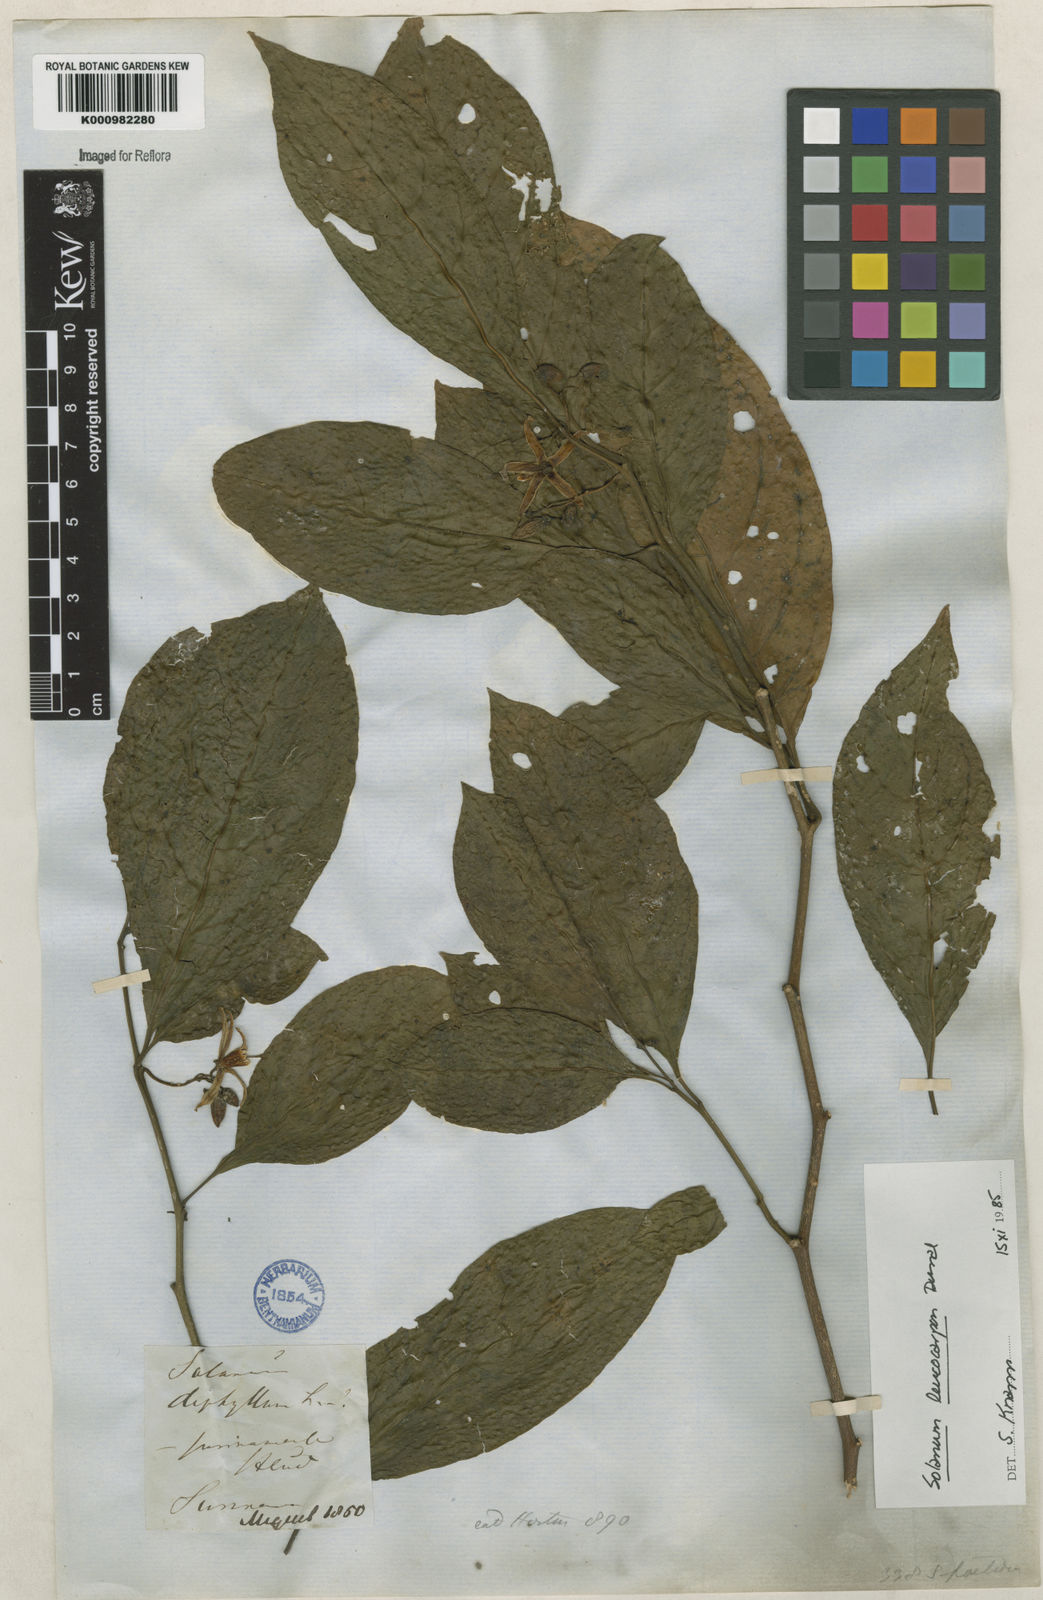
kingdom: Plantae
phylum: Tracheophyta
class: Magnoliopsida
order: Solanales
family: Solanaceae
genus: Solanum
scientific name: Solanum leucocarpon
